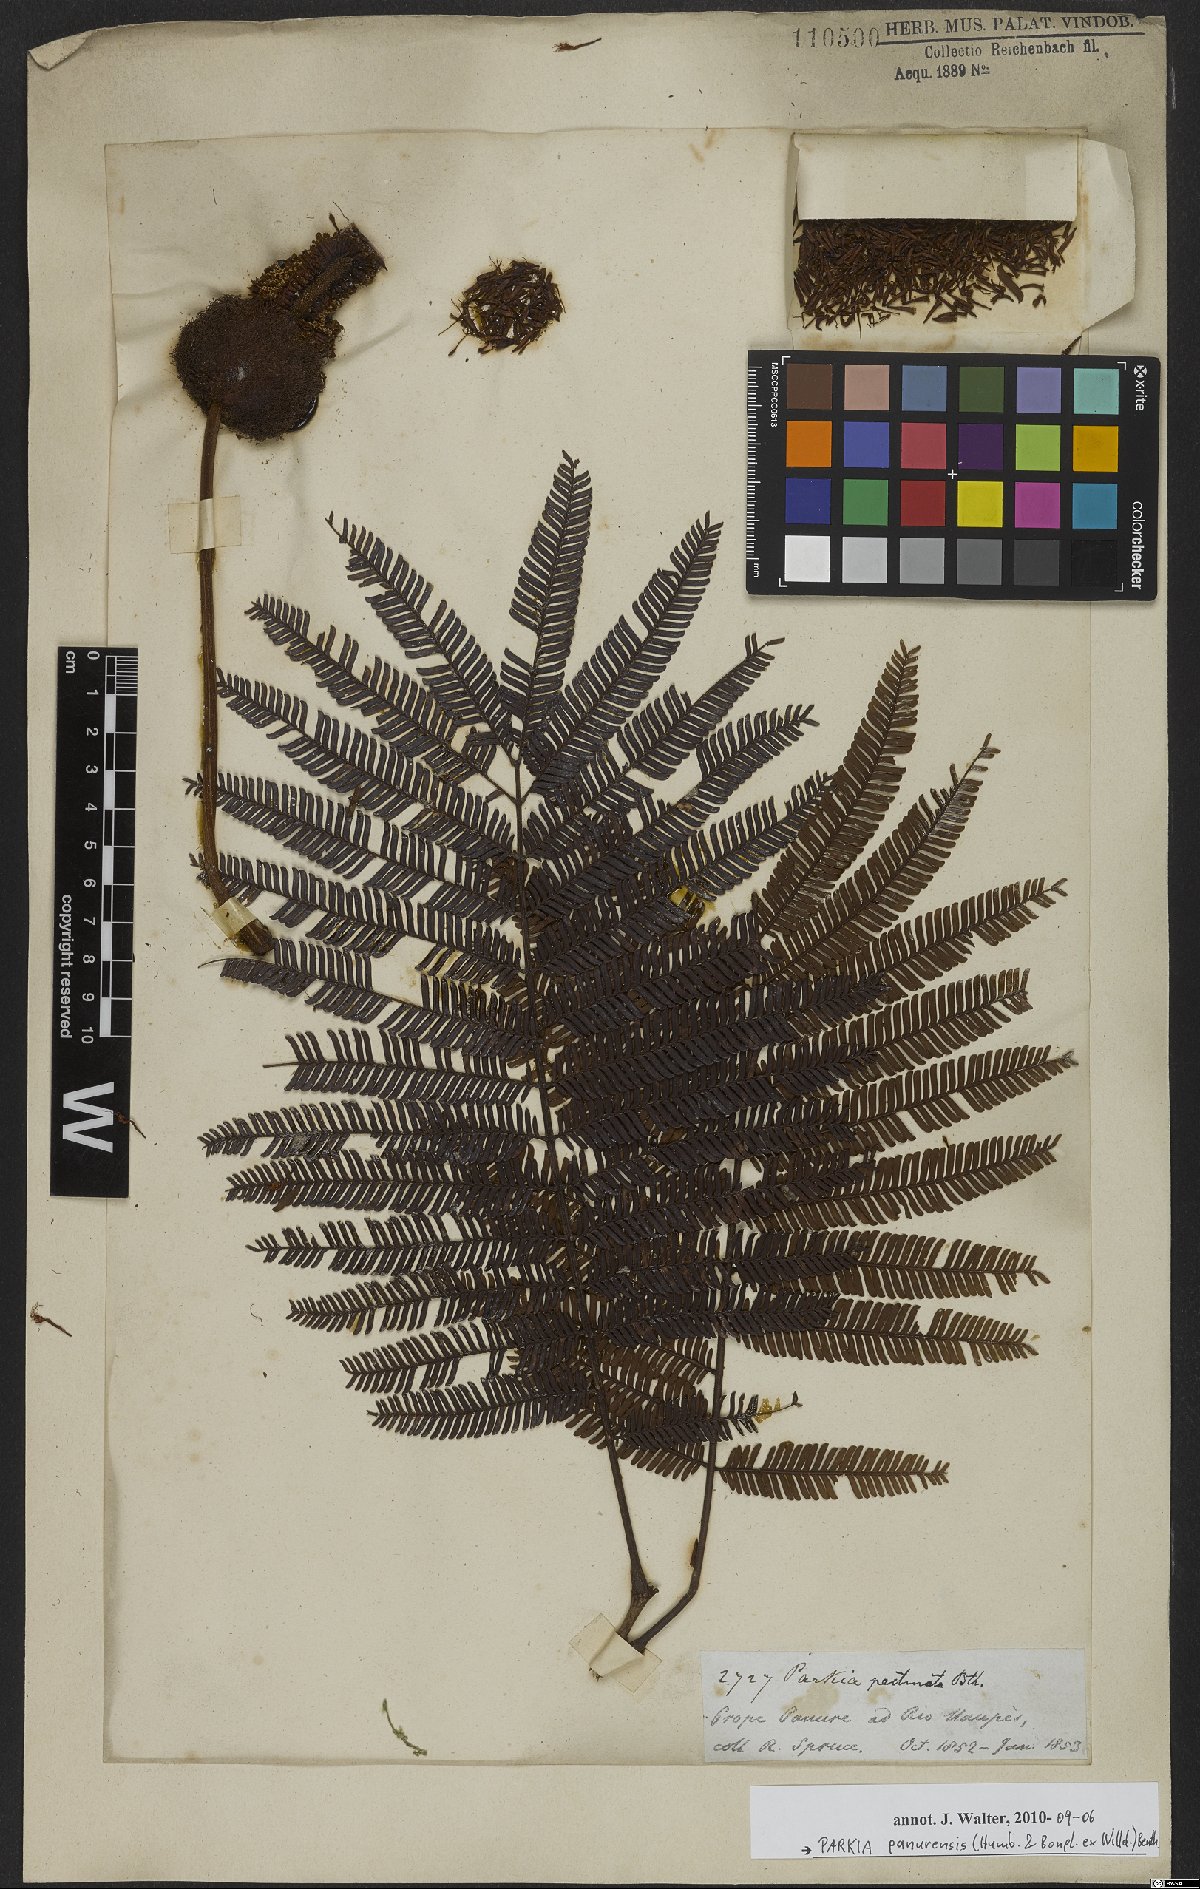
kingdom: Plantae
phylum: Tracheophyta
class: Magnoliopsida
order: Fabales
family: Fabaceae
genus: Parkia
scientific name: Parkia pectinata
